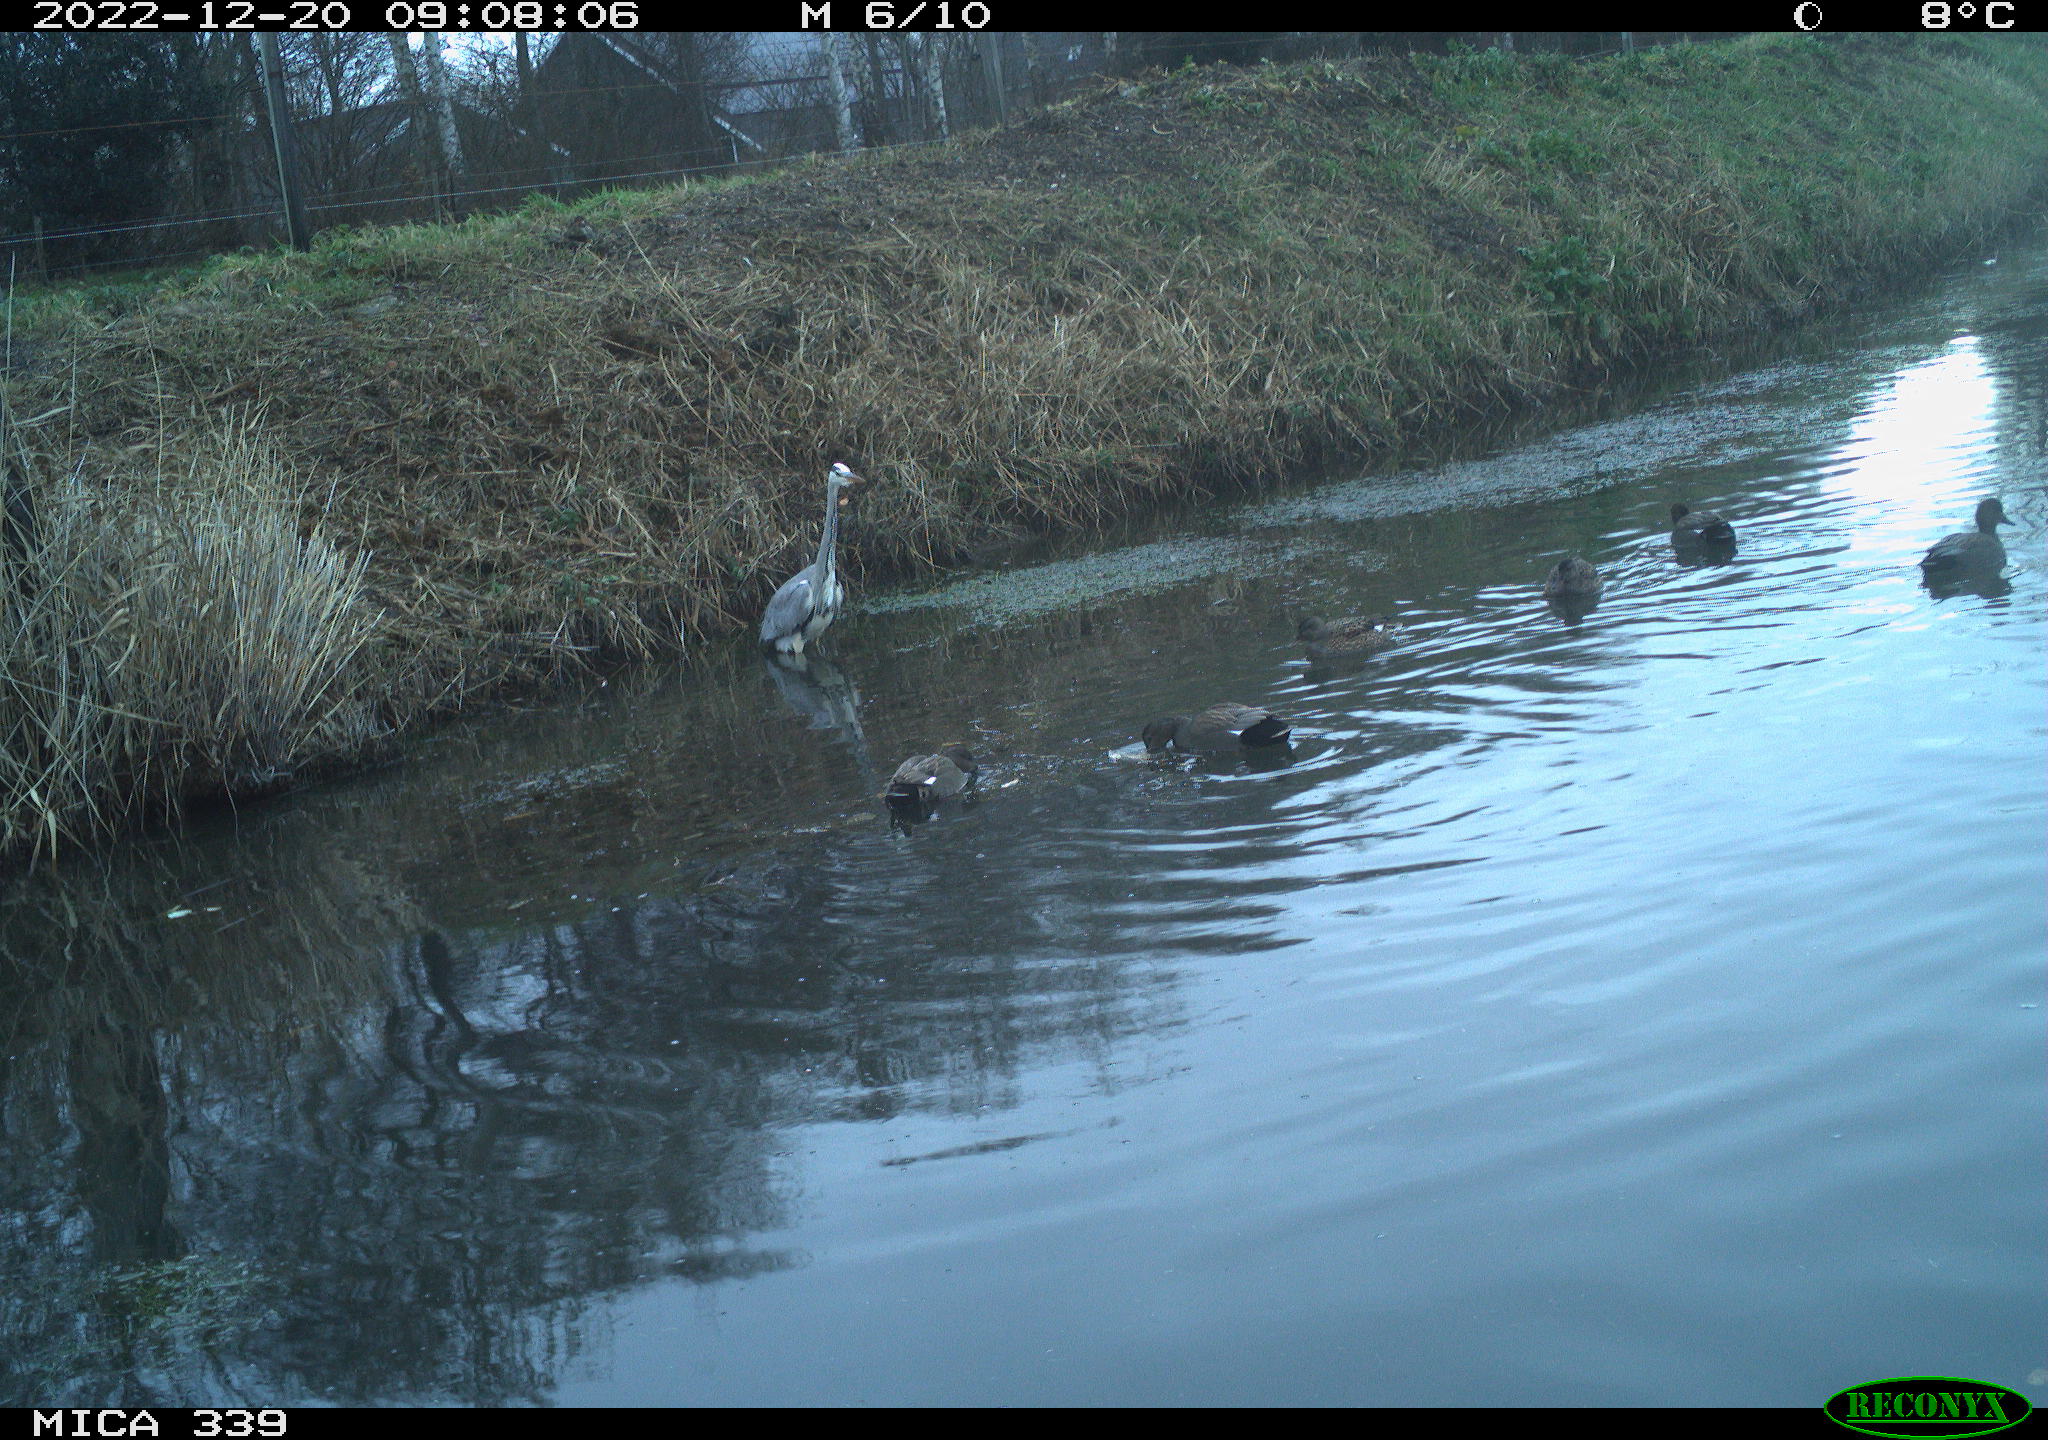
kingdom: Animalia
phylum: Chordata
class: Aves
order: Pelecaniformes
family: Ardeidae
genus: Ardea
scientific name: Ardea cinerea
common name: Grey heron
